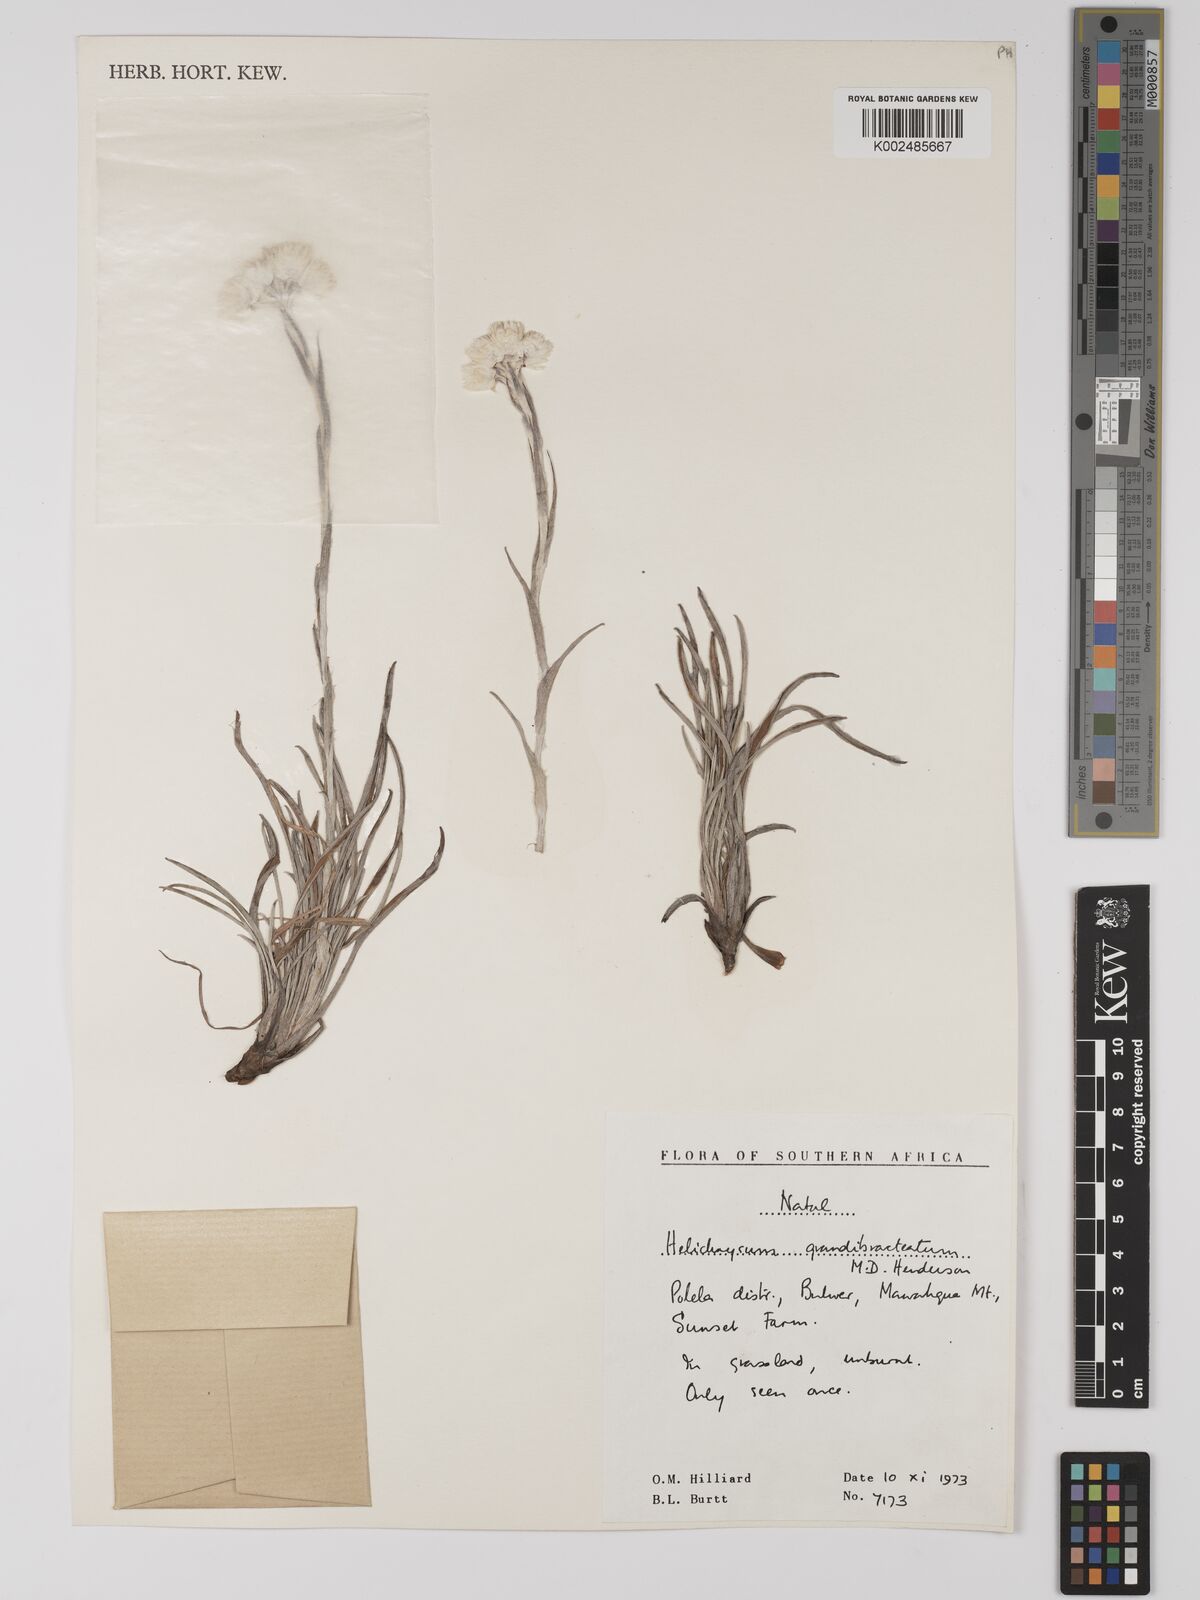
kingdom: Plantae
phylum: Tracheophyta
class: Magnoliopsida
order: Asterales
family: Asteraceae
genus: Helichrysum
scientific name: Helichrysum grandibracteatum
